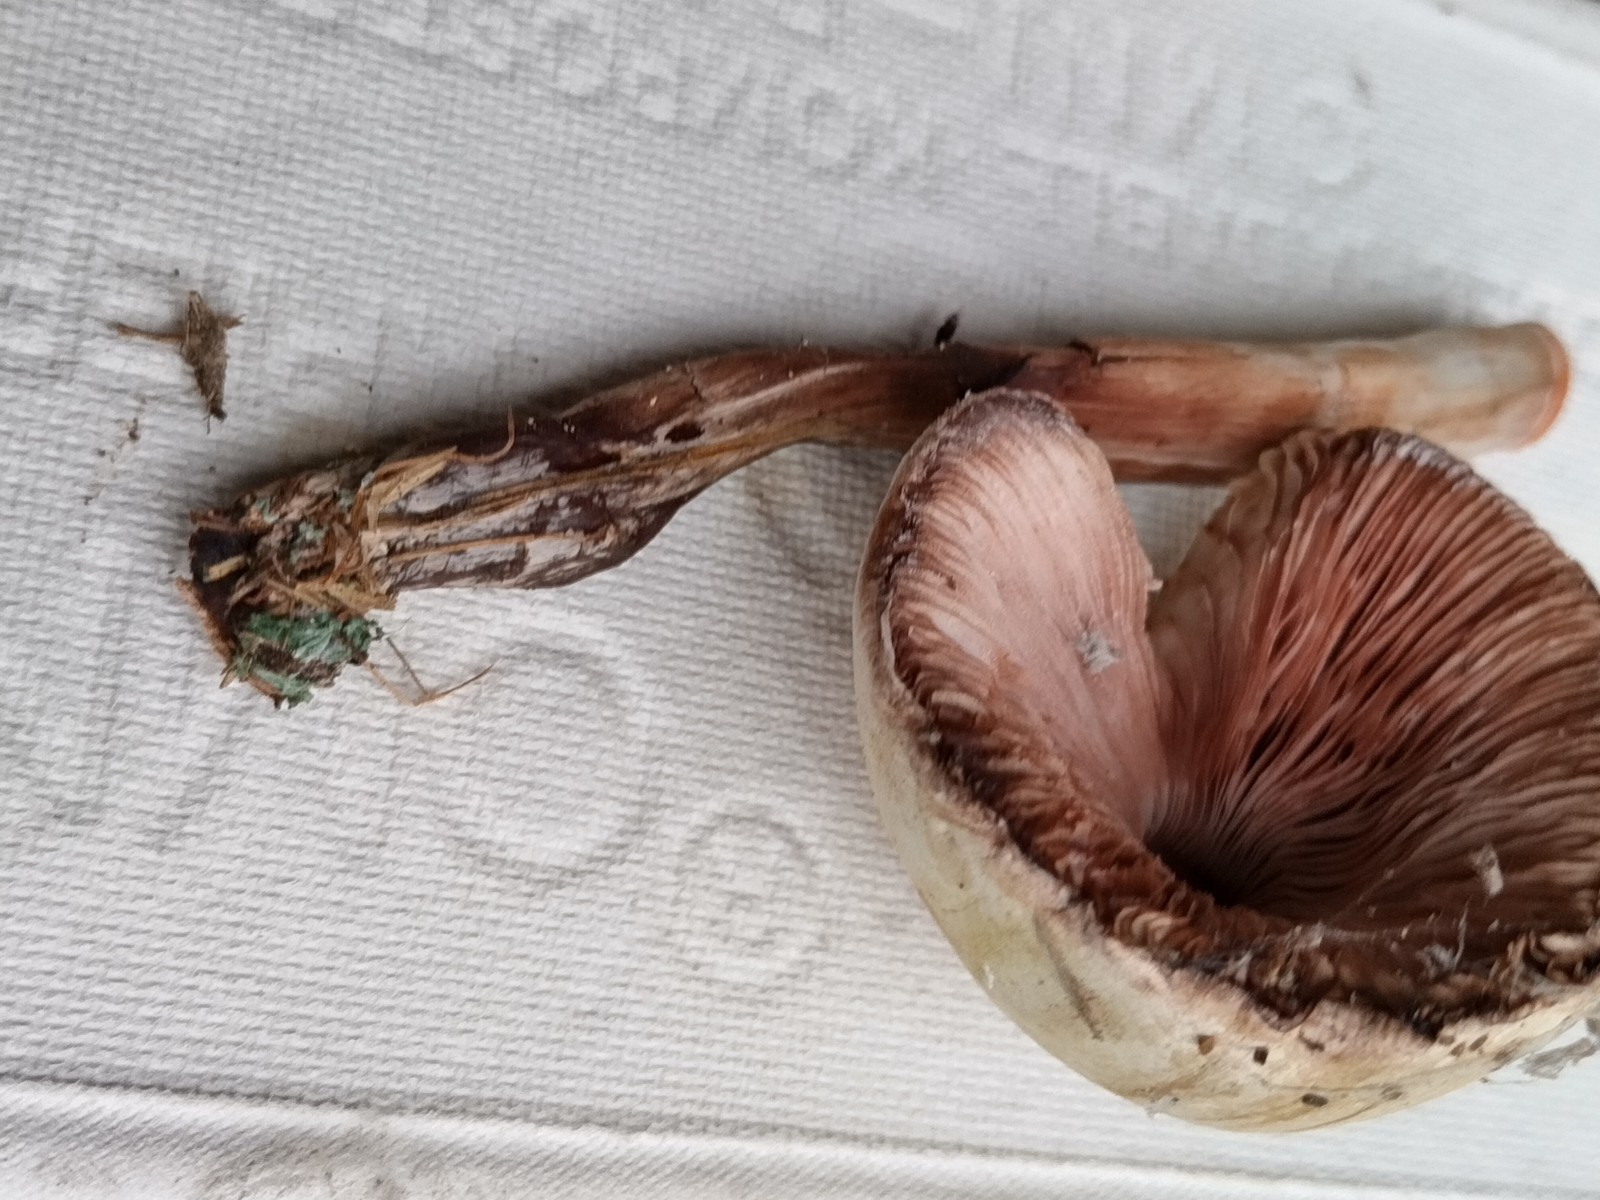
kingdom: Fungi
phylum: Basidiomycota
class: Agaricomycetes
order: Agaricales
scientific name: Agaricales
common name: champignonordenen
